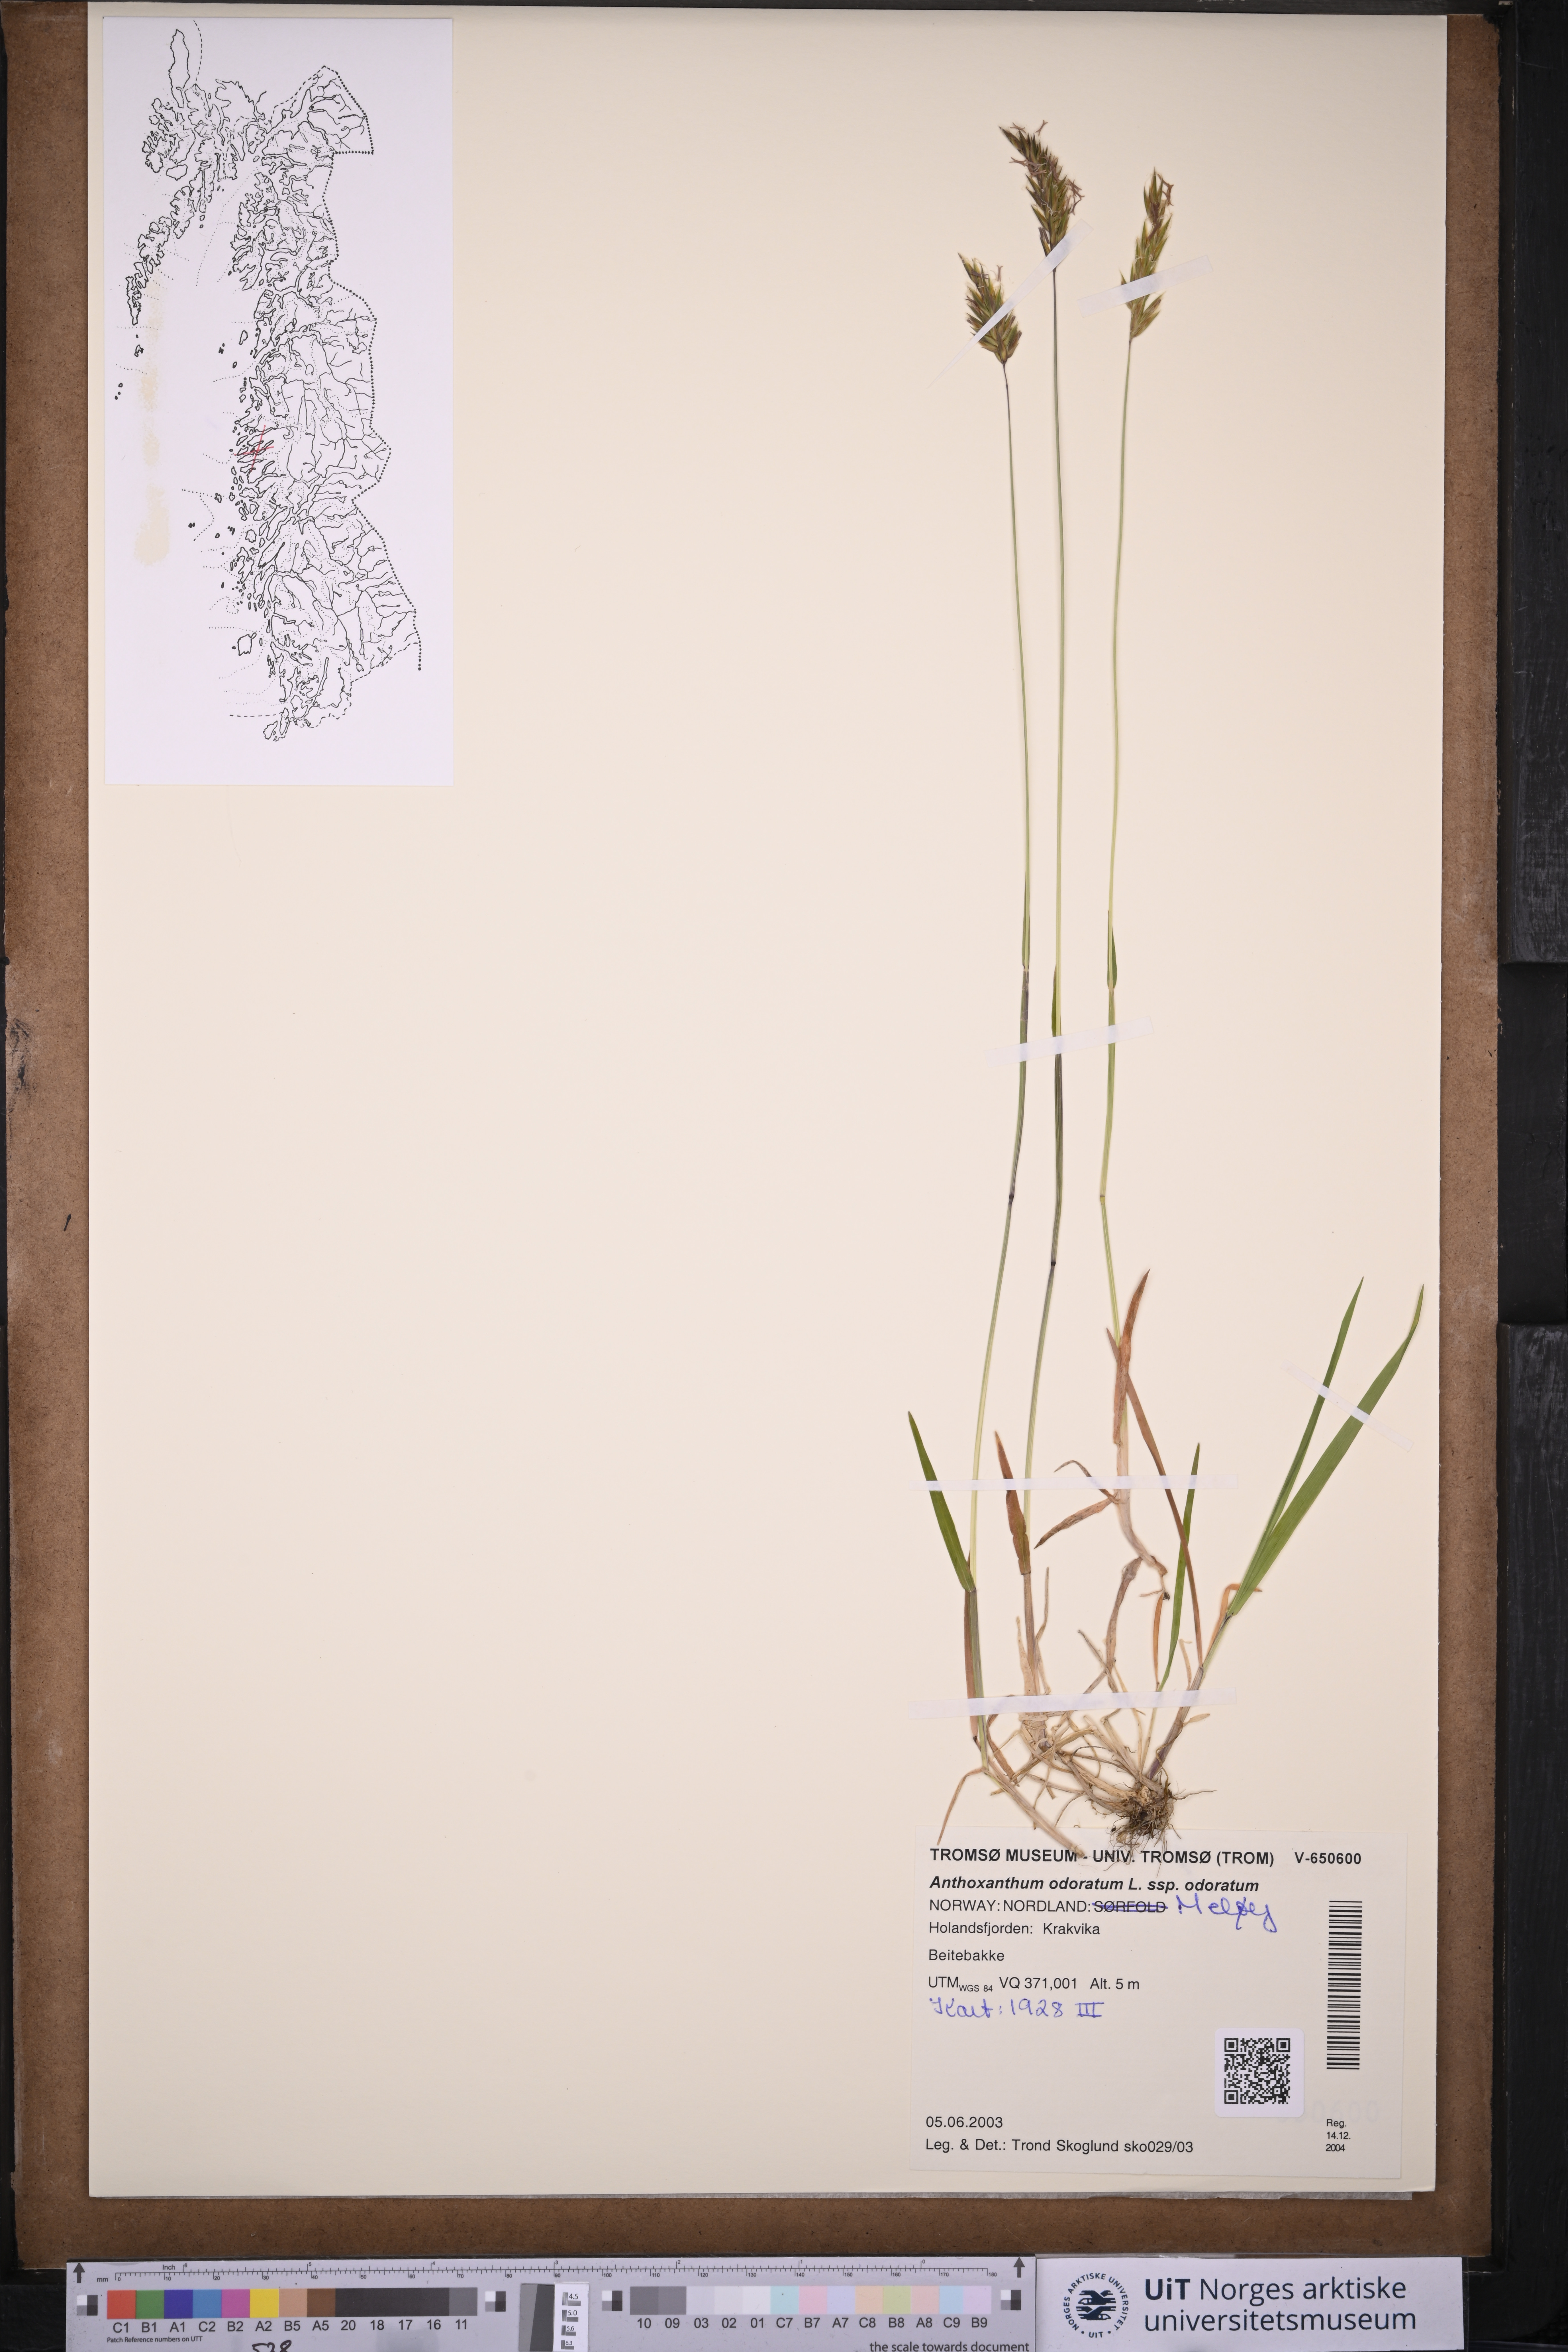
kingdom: Plantae
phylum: Tracheophyta
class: Liliopsida
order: Poales
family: Poaceae
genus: Anthoxanthum
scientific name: Anthoxanthum odoratum
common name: Sweet vernalgrass
